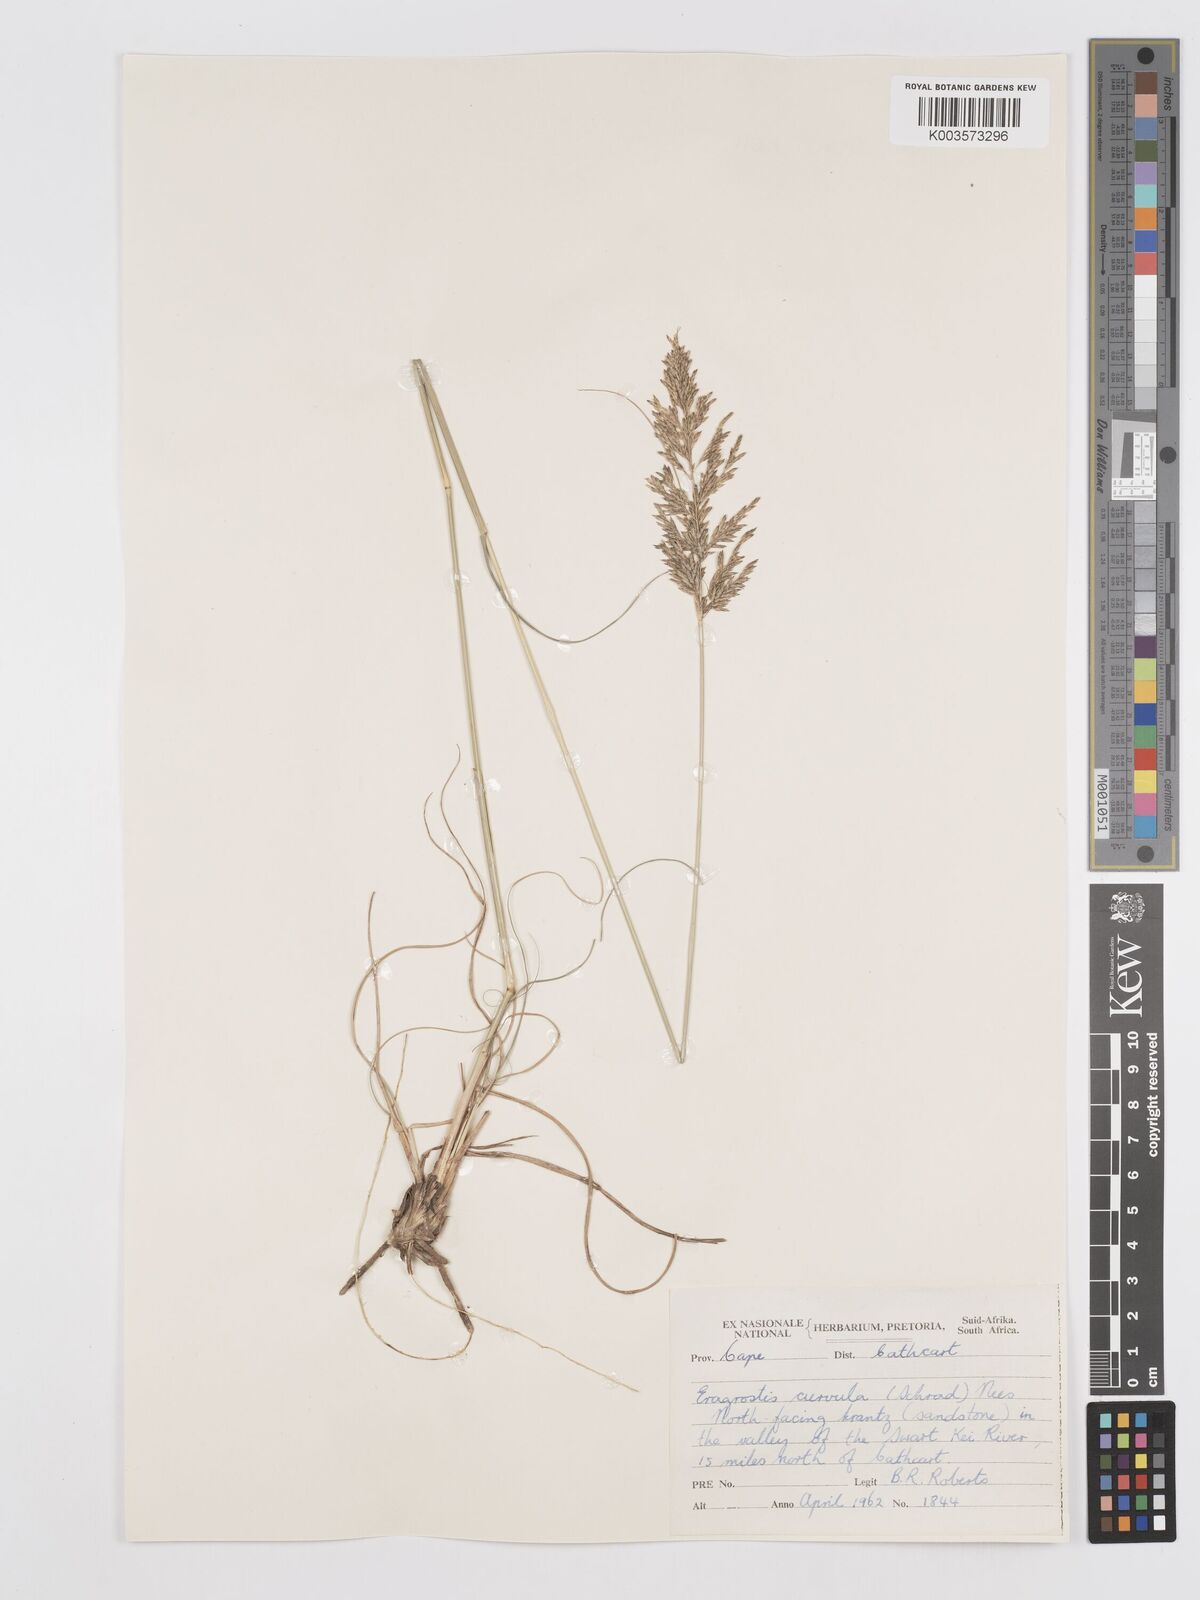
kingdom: Plantae
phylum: Tracheophyta
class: Liliopsida
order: Poales
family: Poaceae
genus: Eragrostis
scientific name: Eragrostis curvula
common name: African love-grass
